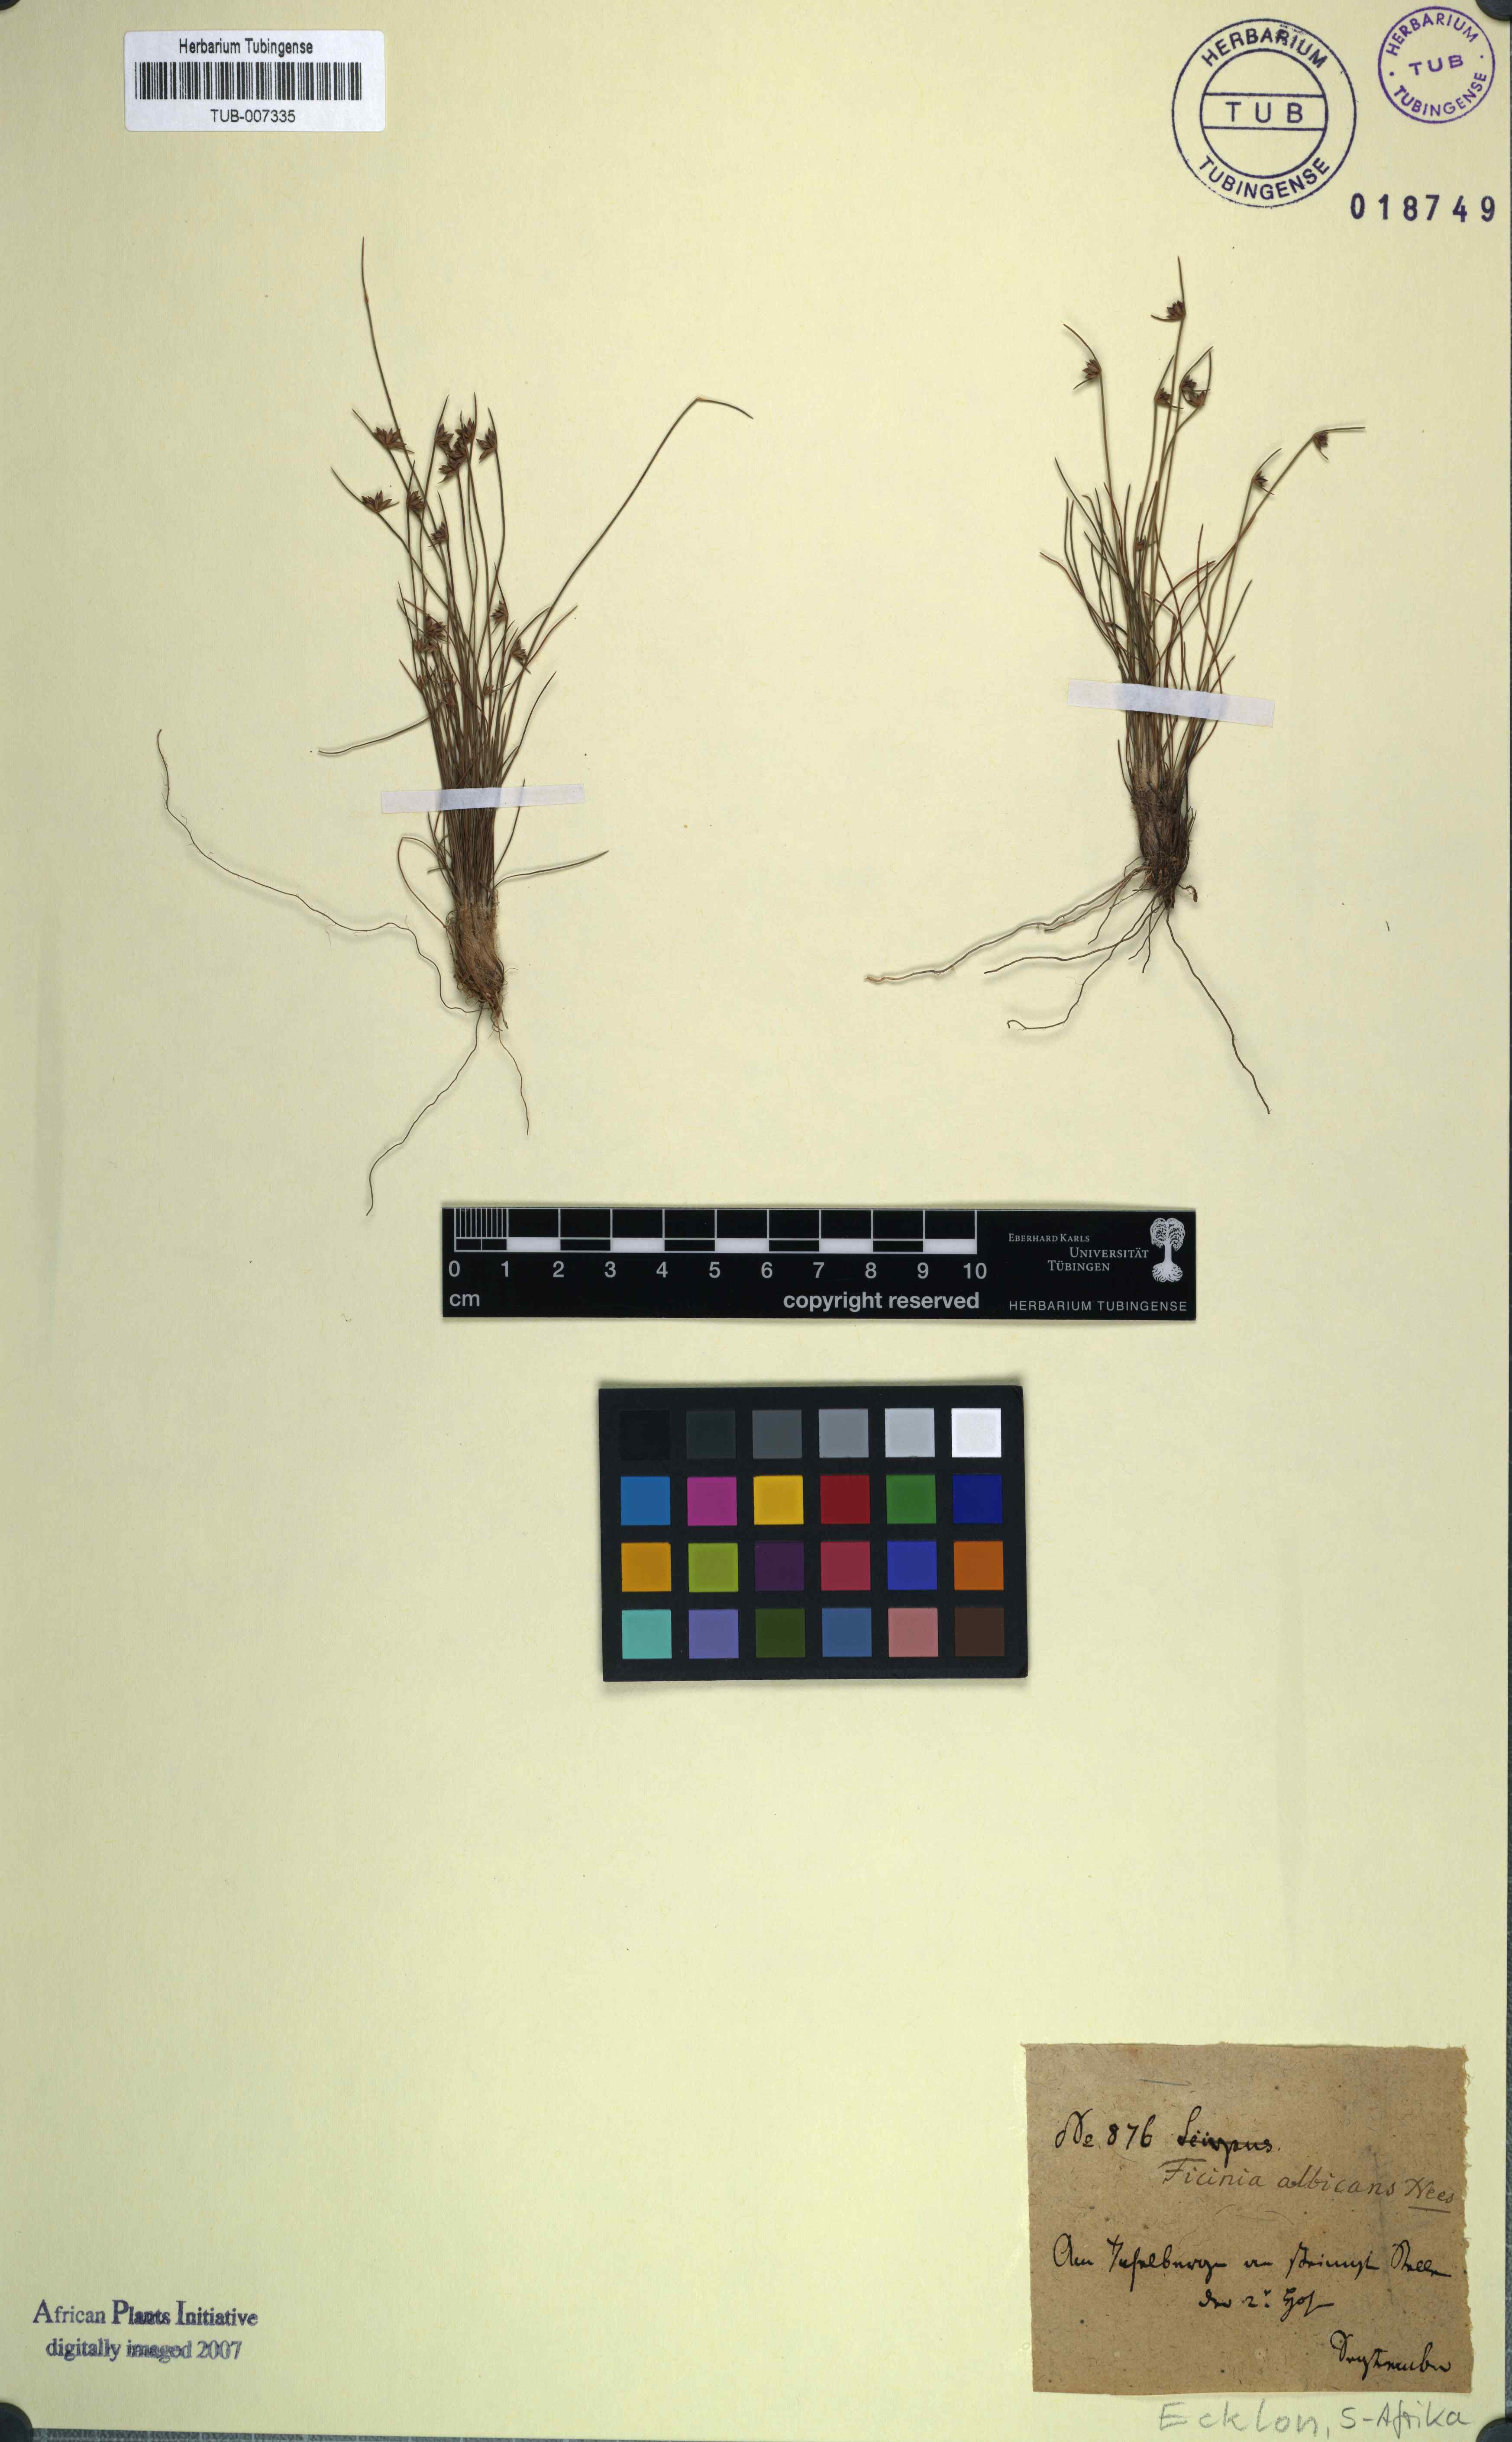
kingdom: Plantae
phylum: Tracheophyta
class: Liliopsida
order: Poales
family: Cyperaceae
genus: Ficinia
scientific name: Ficinia albicans
